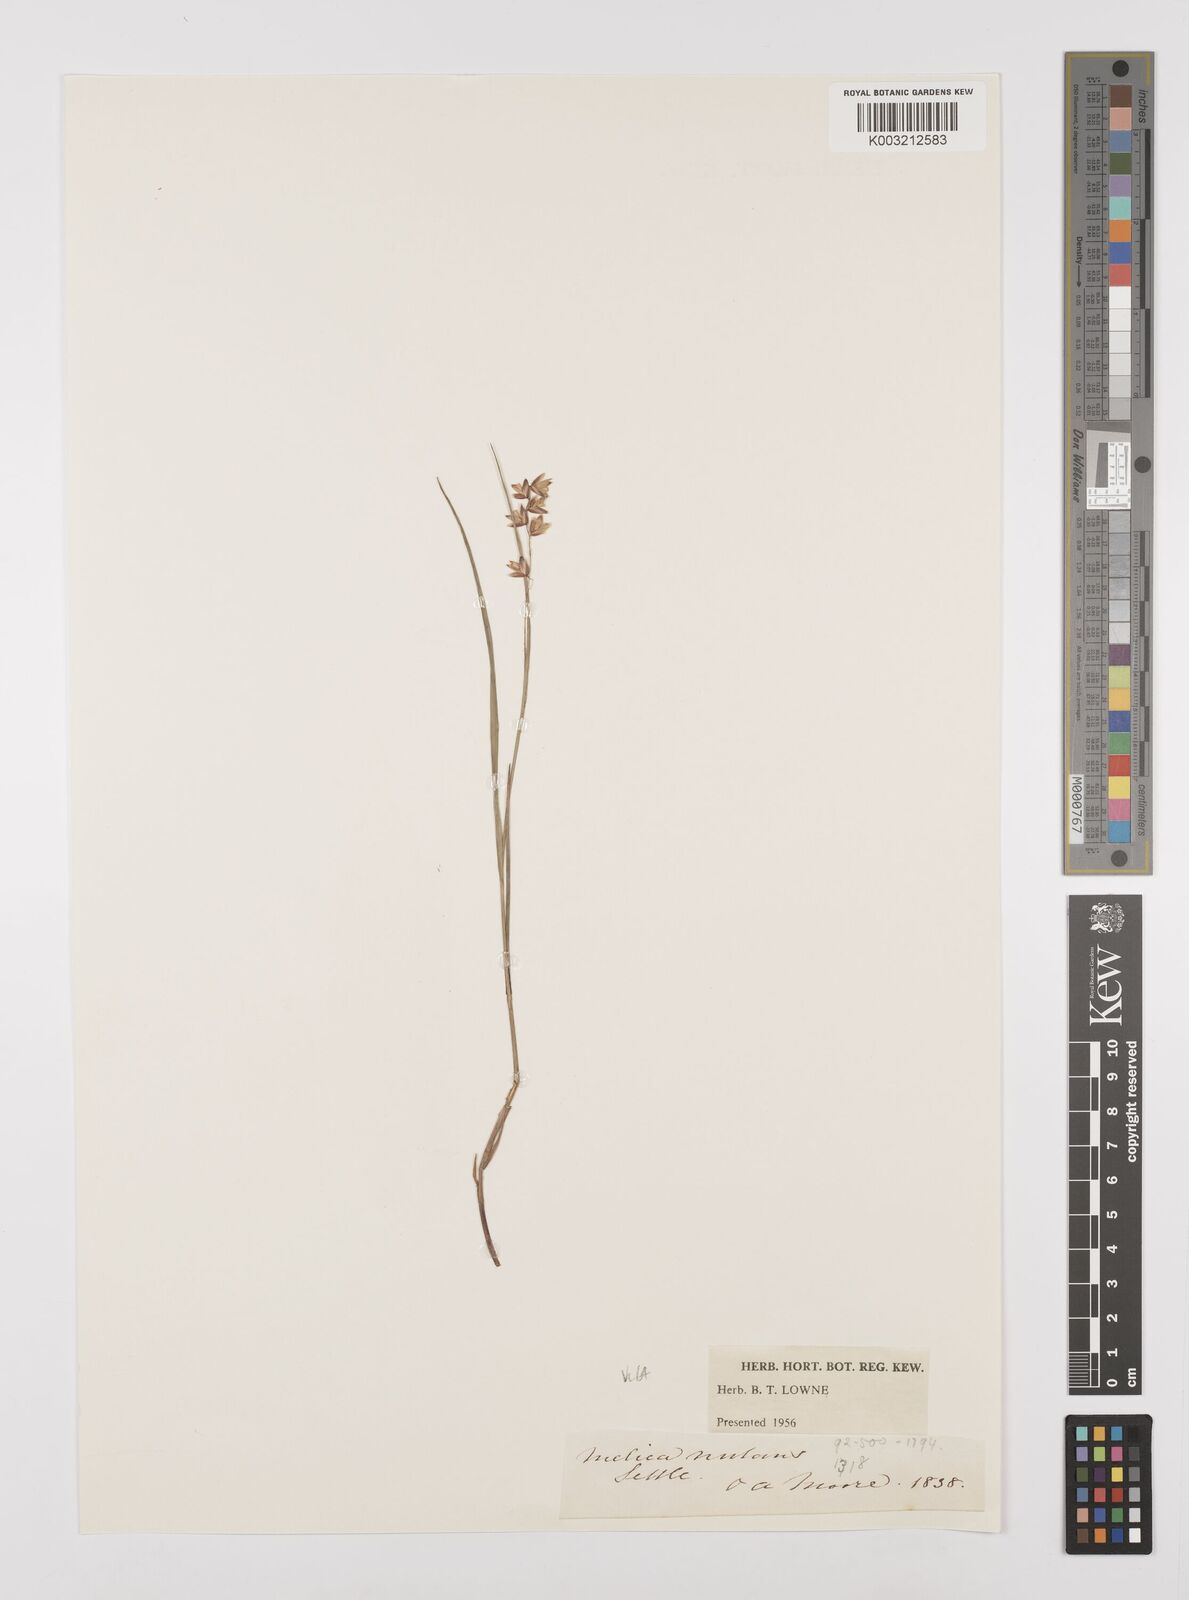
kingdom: Plantae
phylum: Tracheophyta
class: Liliopsida
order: Poales
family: Poaceae
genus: Melica
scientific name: Melica
